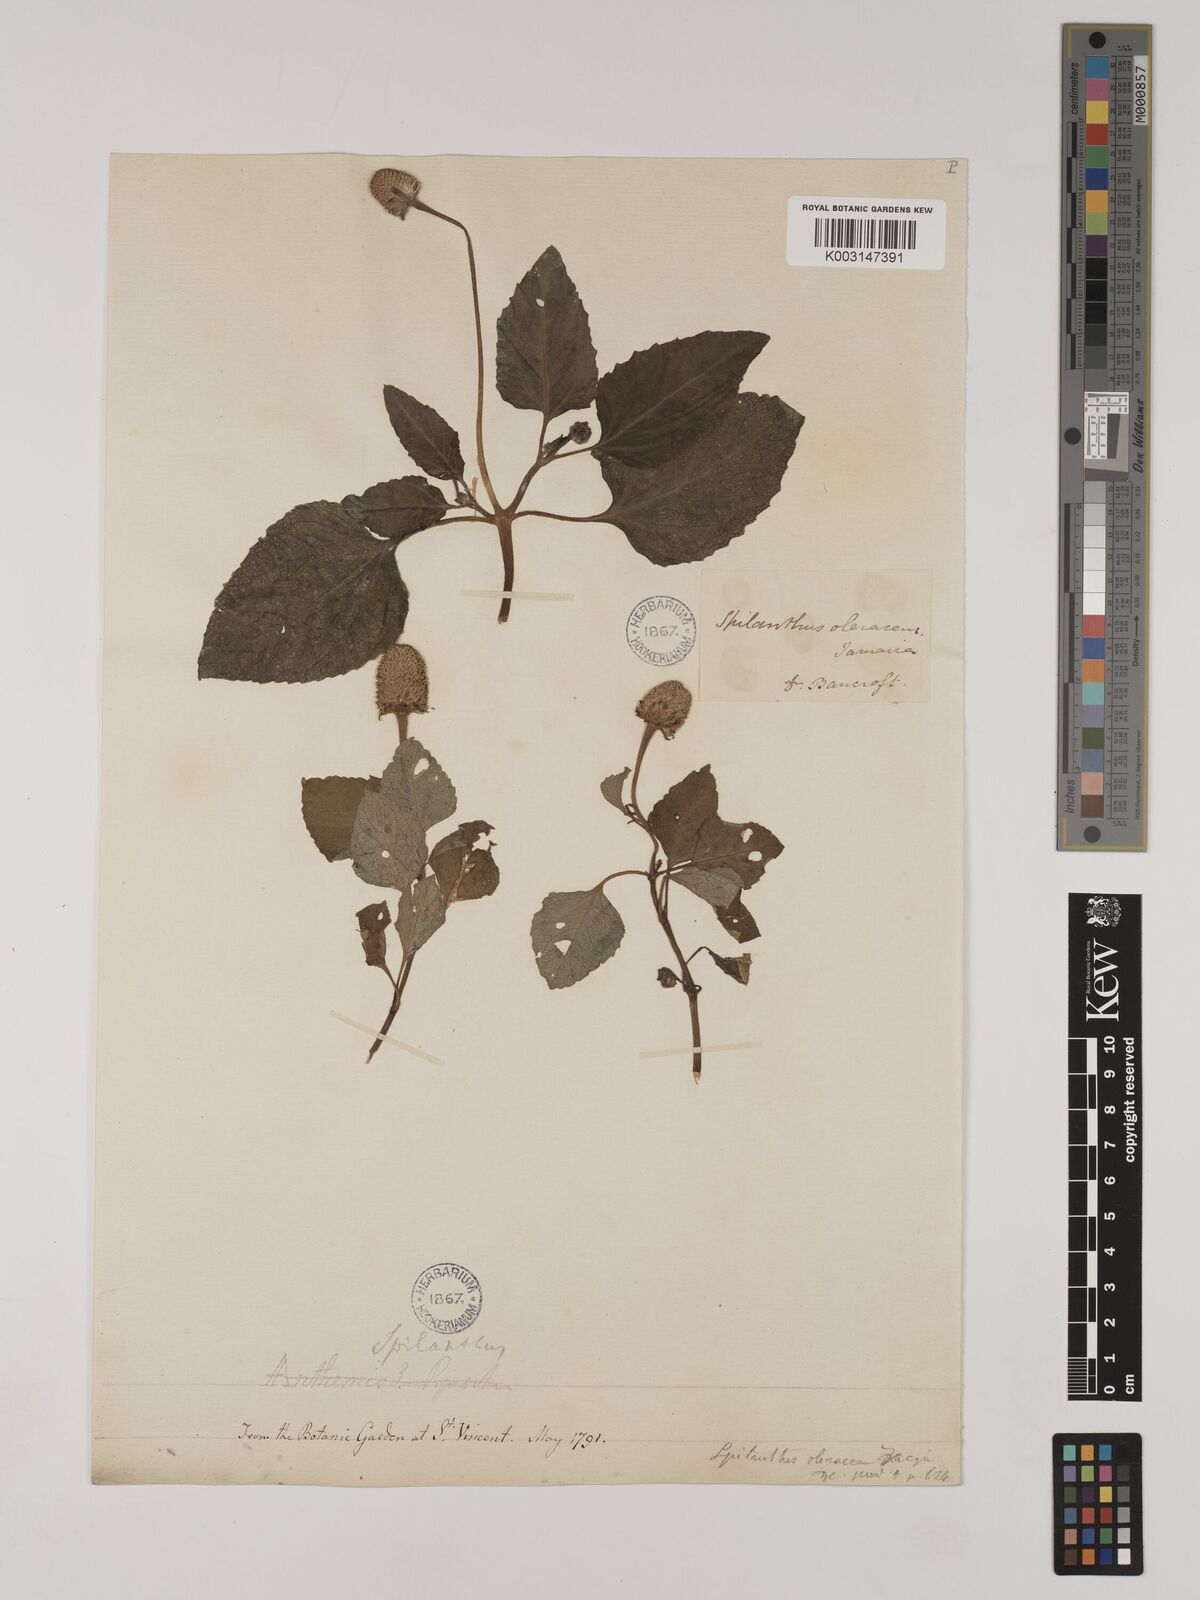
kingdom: Plantae
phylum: Tracheophyta
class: Magnoliopsida
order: Asterales
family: Asteraceae
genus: Acmella
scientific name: Acmella oleracea
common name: Brazilian cress
